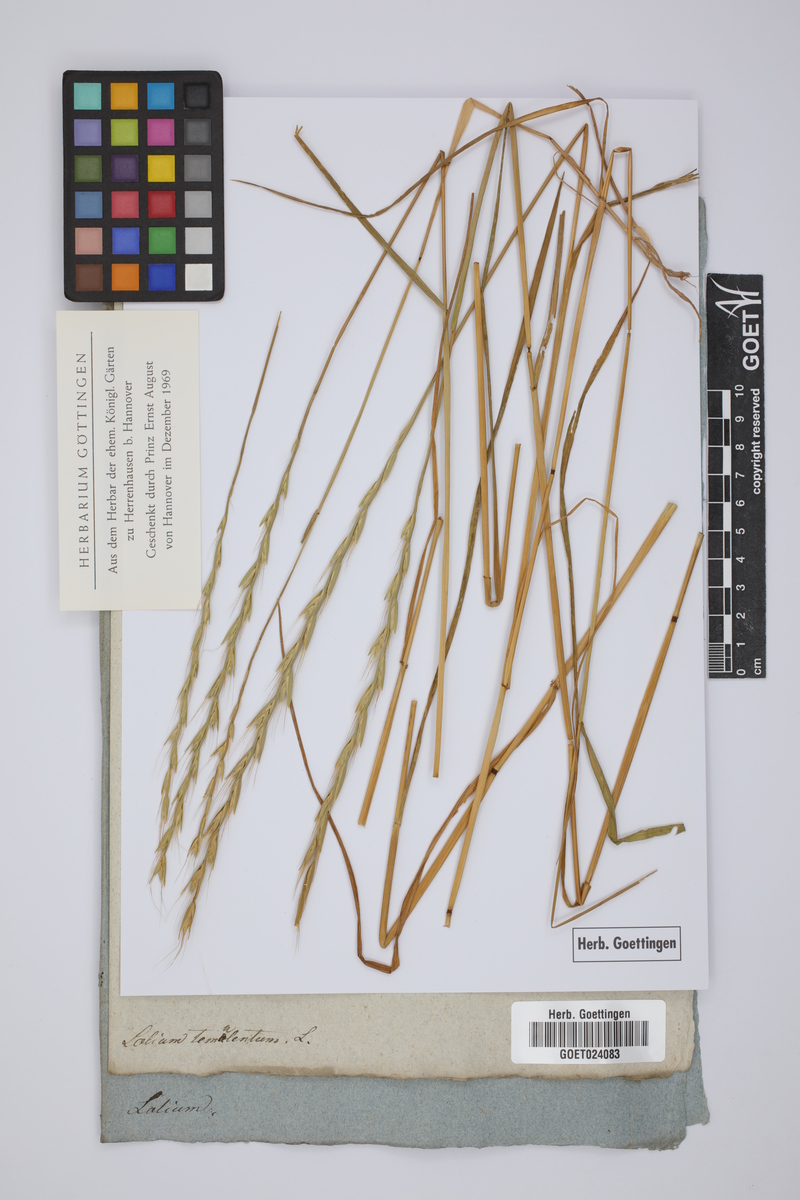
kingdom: Plantae
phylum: Tracheophyta
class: Liliopsida
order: Poales
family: Poaceae
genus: Lolium
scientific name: Lolium temulentum
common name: Darnel
